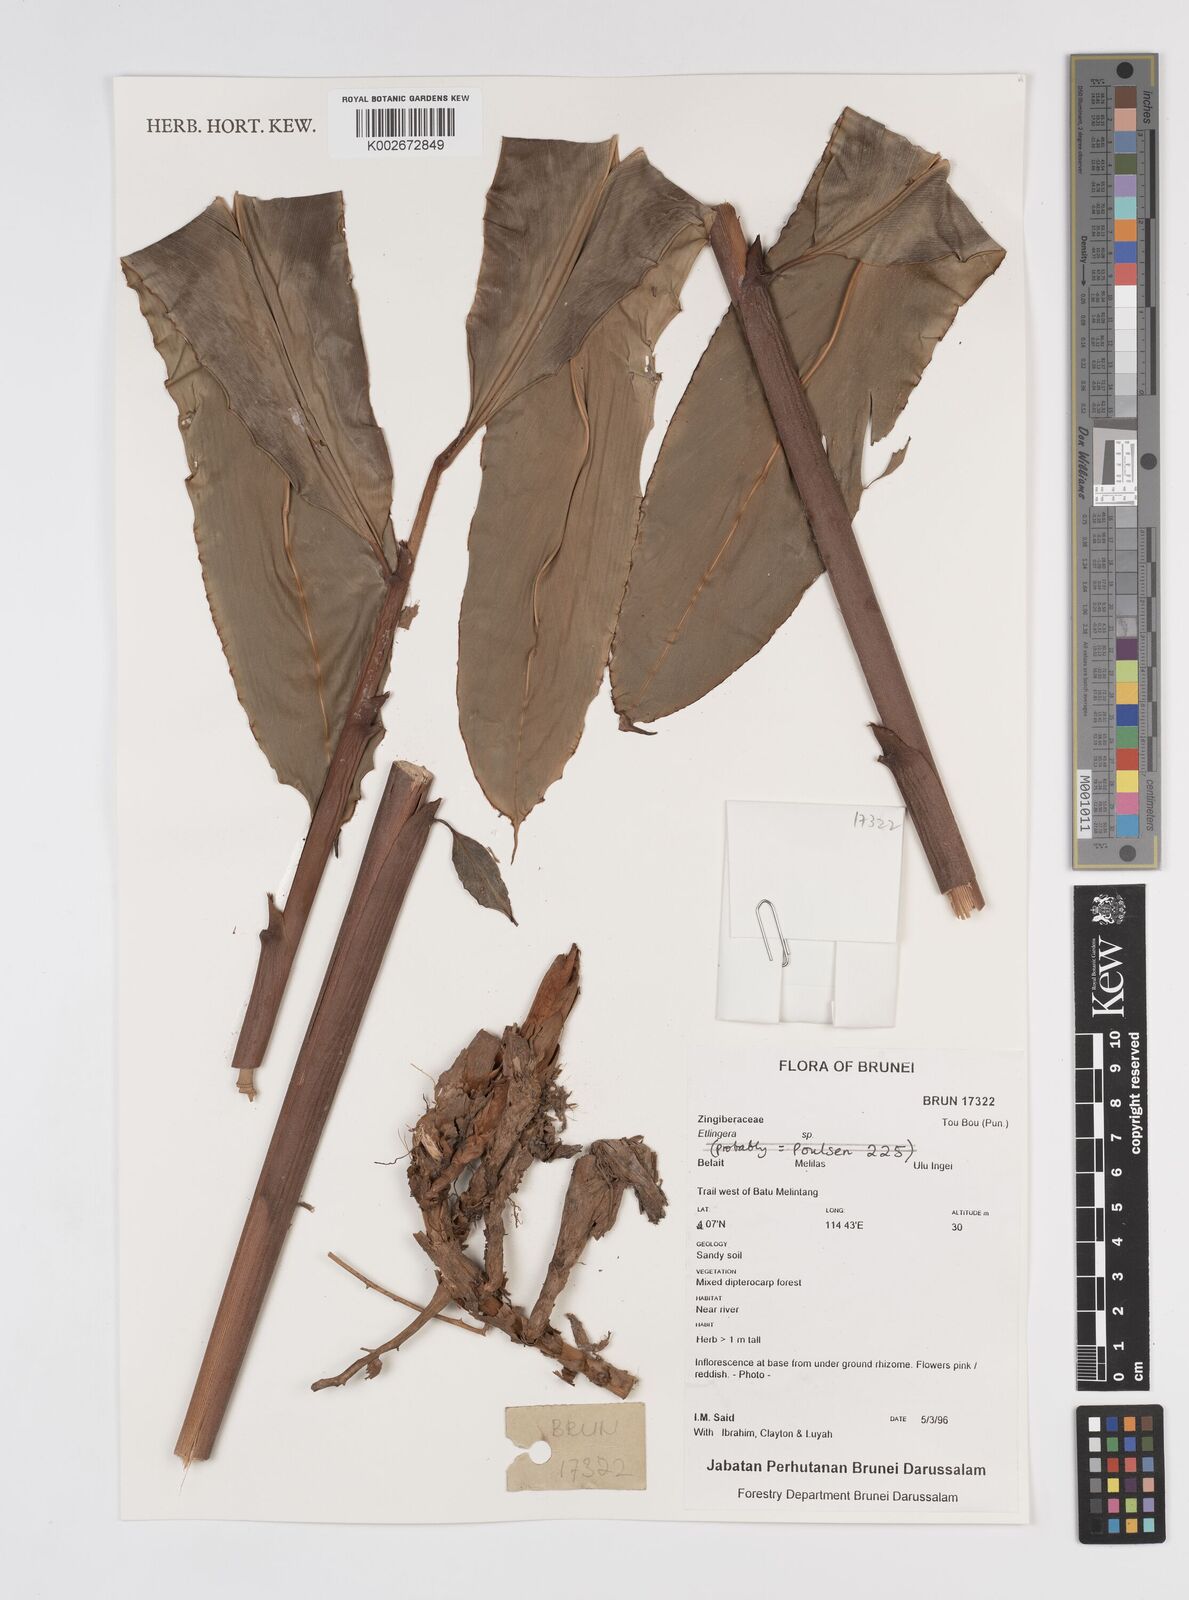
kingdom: Plantae
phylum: Tracheophyta
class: Liliopsida
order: Zingiberales
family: Zingiberaceae
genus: Etlingera
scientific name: Etlingera
